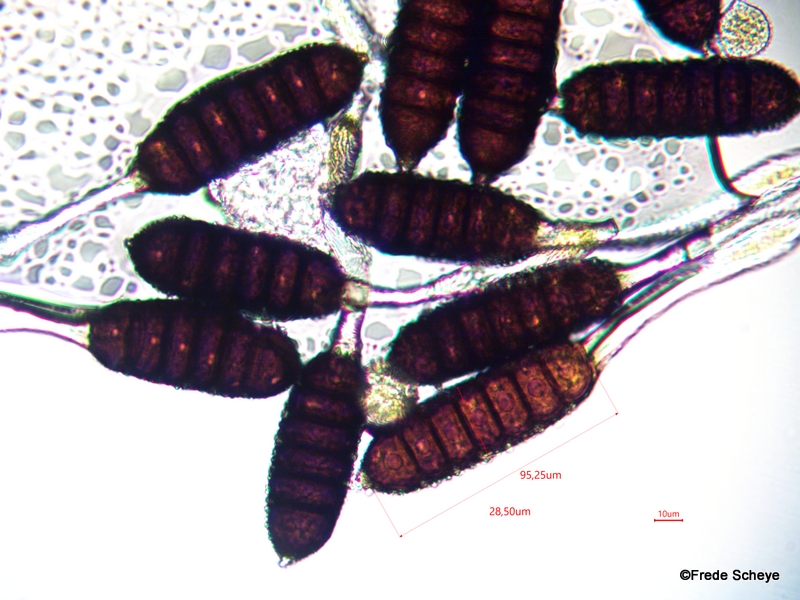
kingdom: Fungi
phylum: Basidiomycota
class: Pucciniomycetes
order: Pucciniales
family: Phragmidiaceae
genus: Phragmidium
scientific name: Phragmidium rubi-idaei
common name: hindbær-flercellerust
